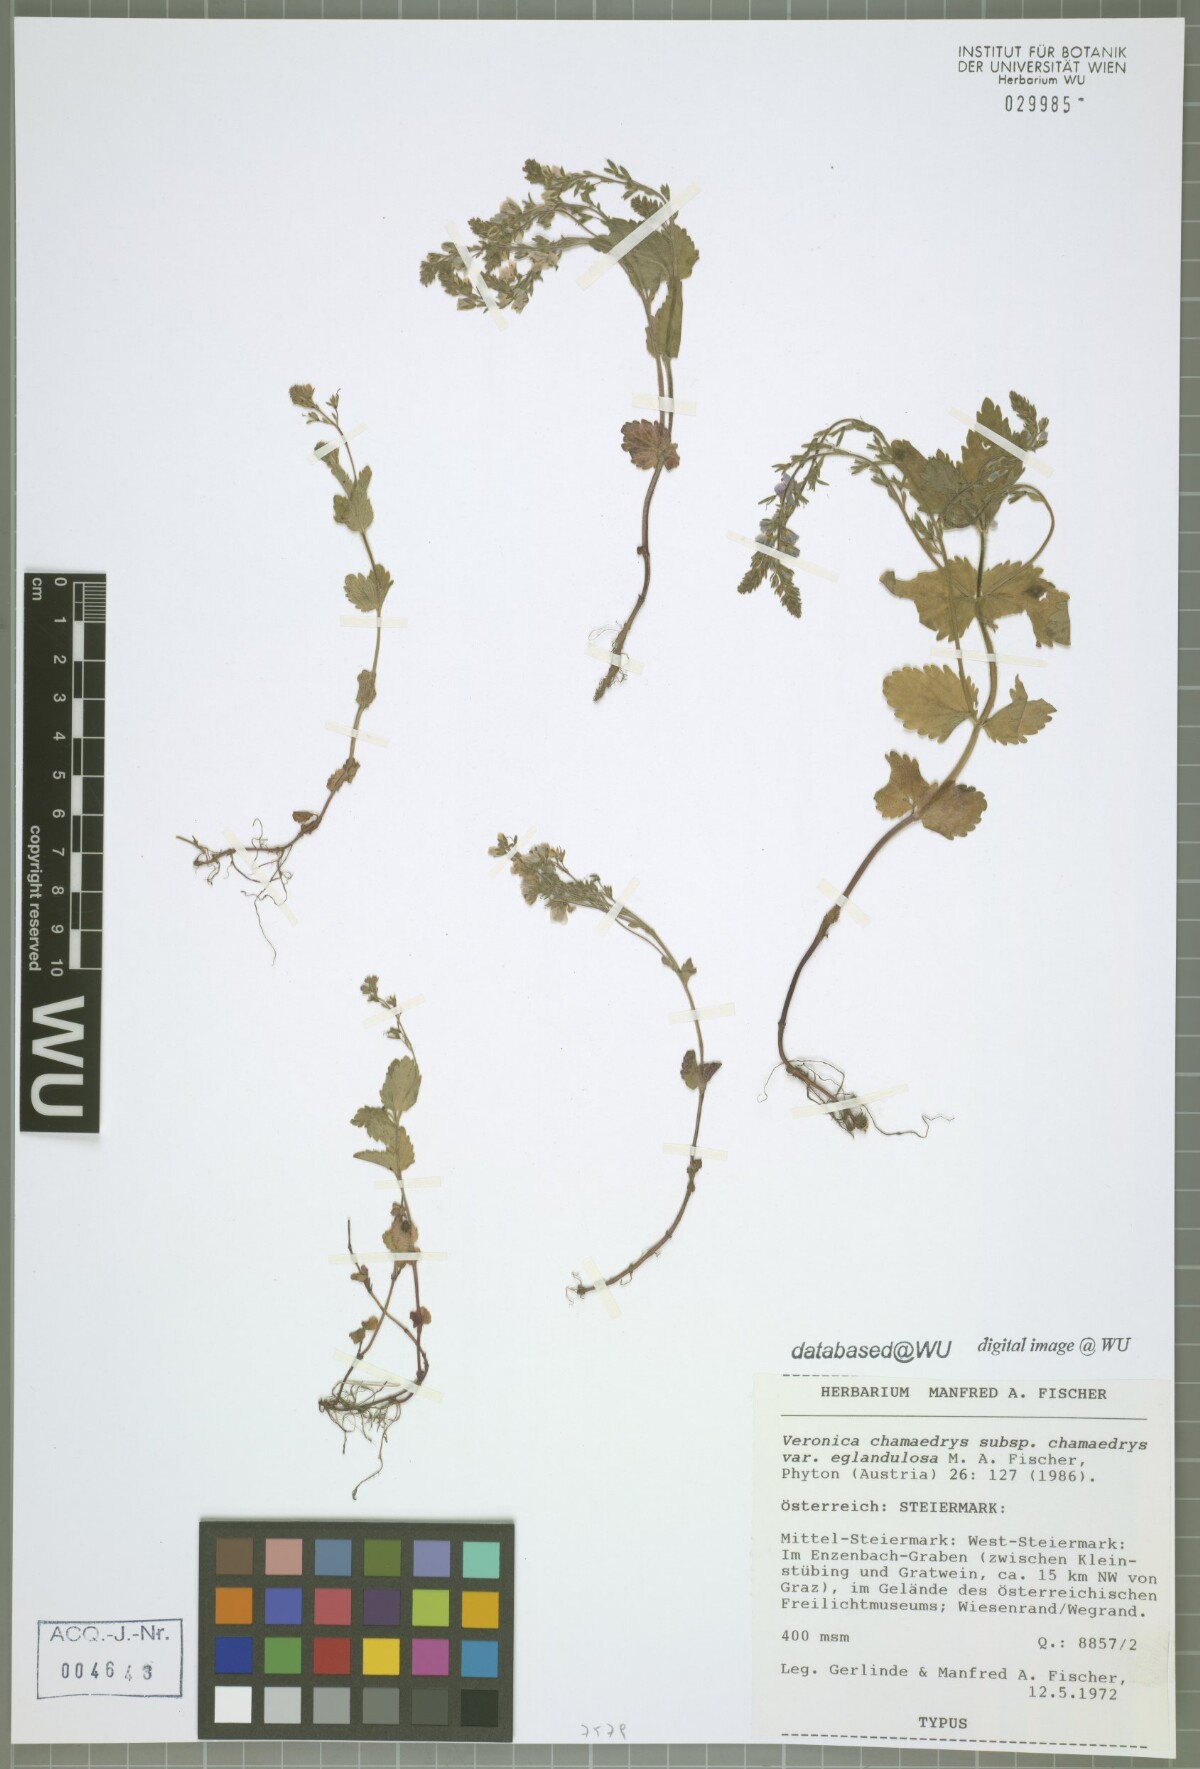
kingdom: Plantae
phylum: Tracheophyta
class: Magnoliopsida
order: Lamiales
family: Plantaginaceae
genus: Veronica
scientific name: Veronica chamaedrys
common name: Germander speedwell
